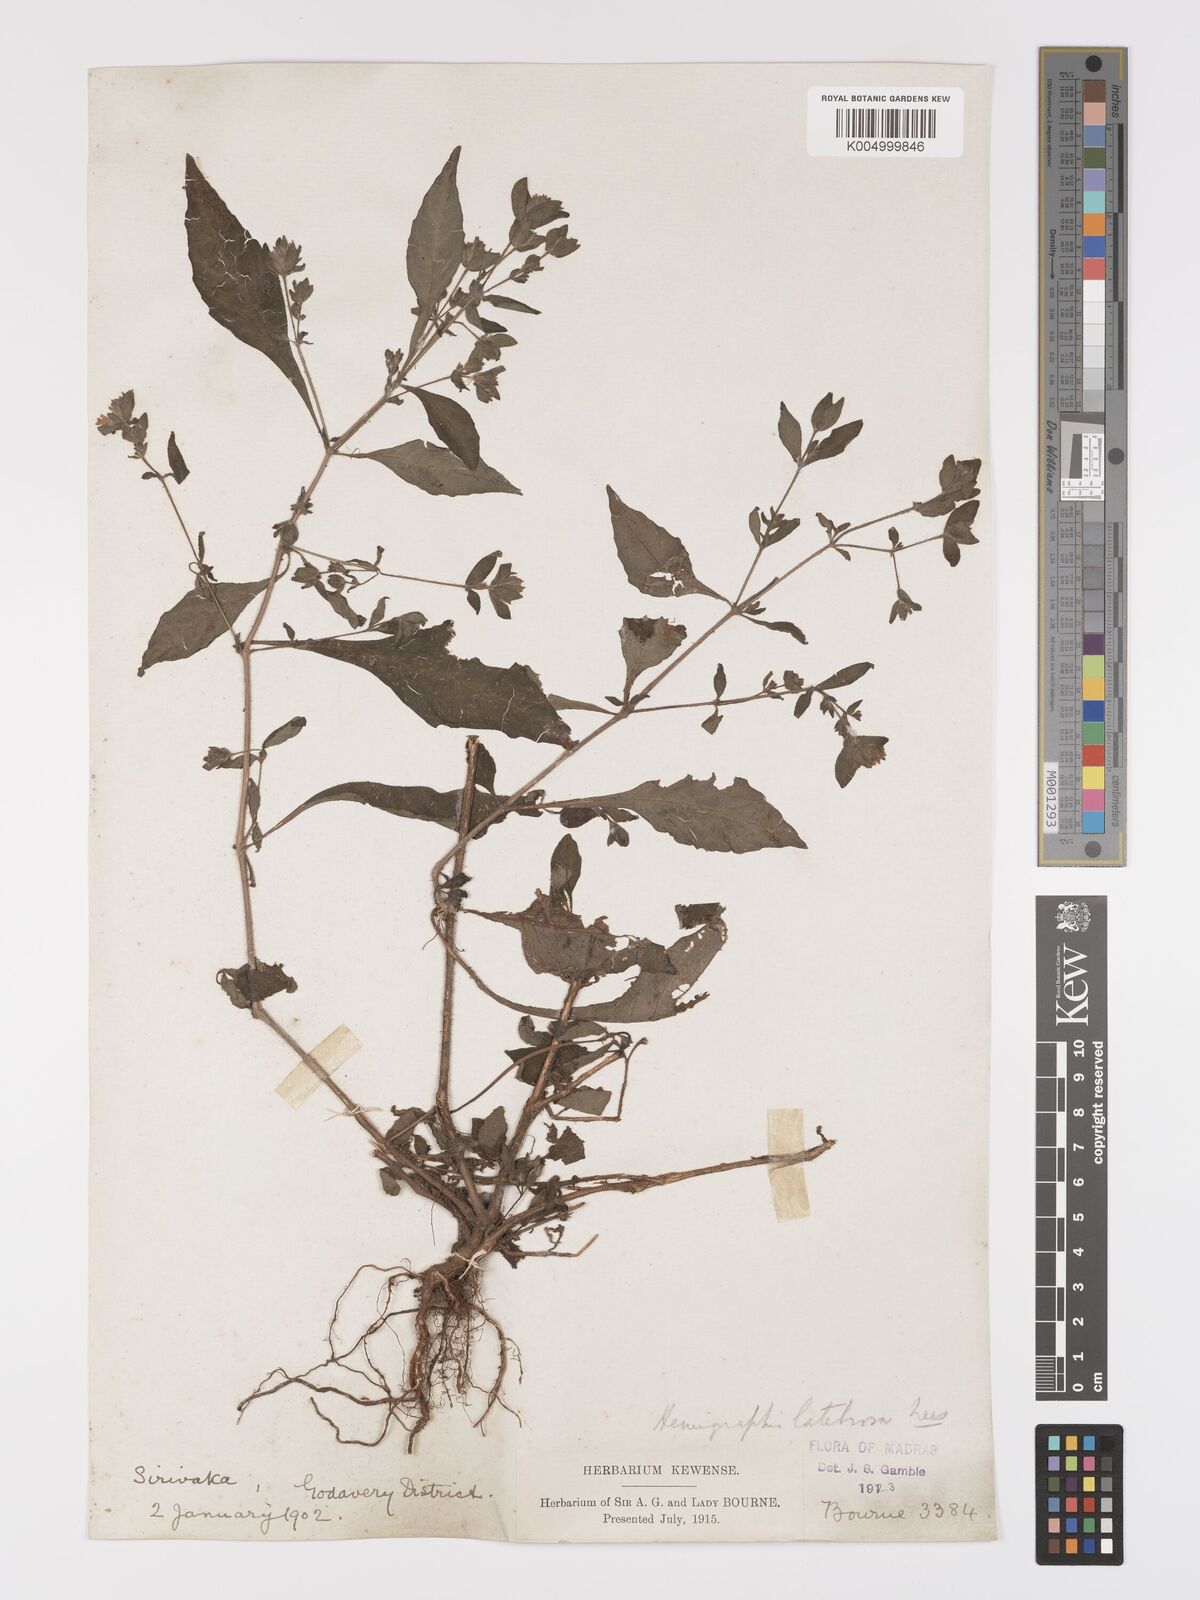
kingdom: Plantae
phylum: Tracheophyta
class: Magnoliopsida
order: Lamiales
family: Acanthaceae
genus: Strobilanthes
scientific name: Strobilanthes pavala
